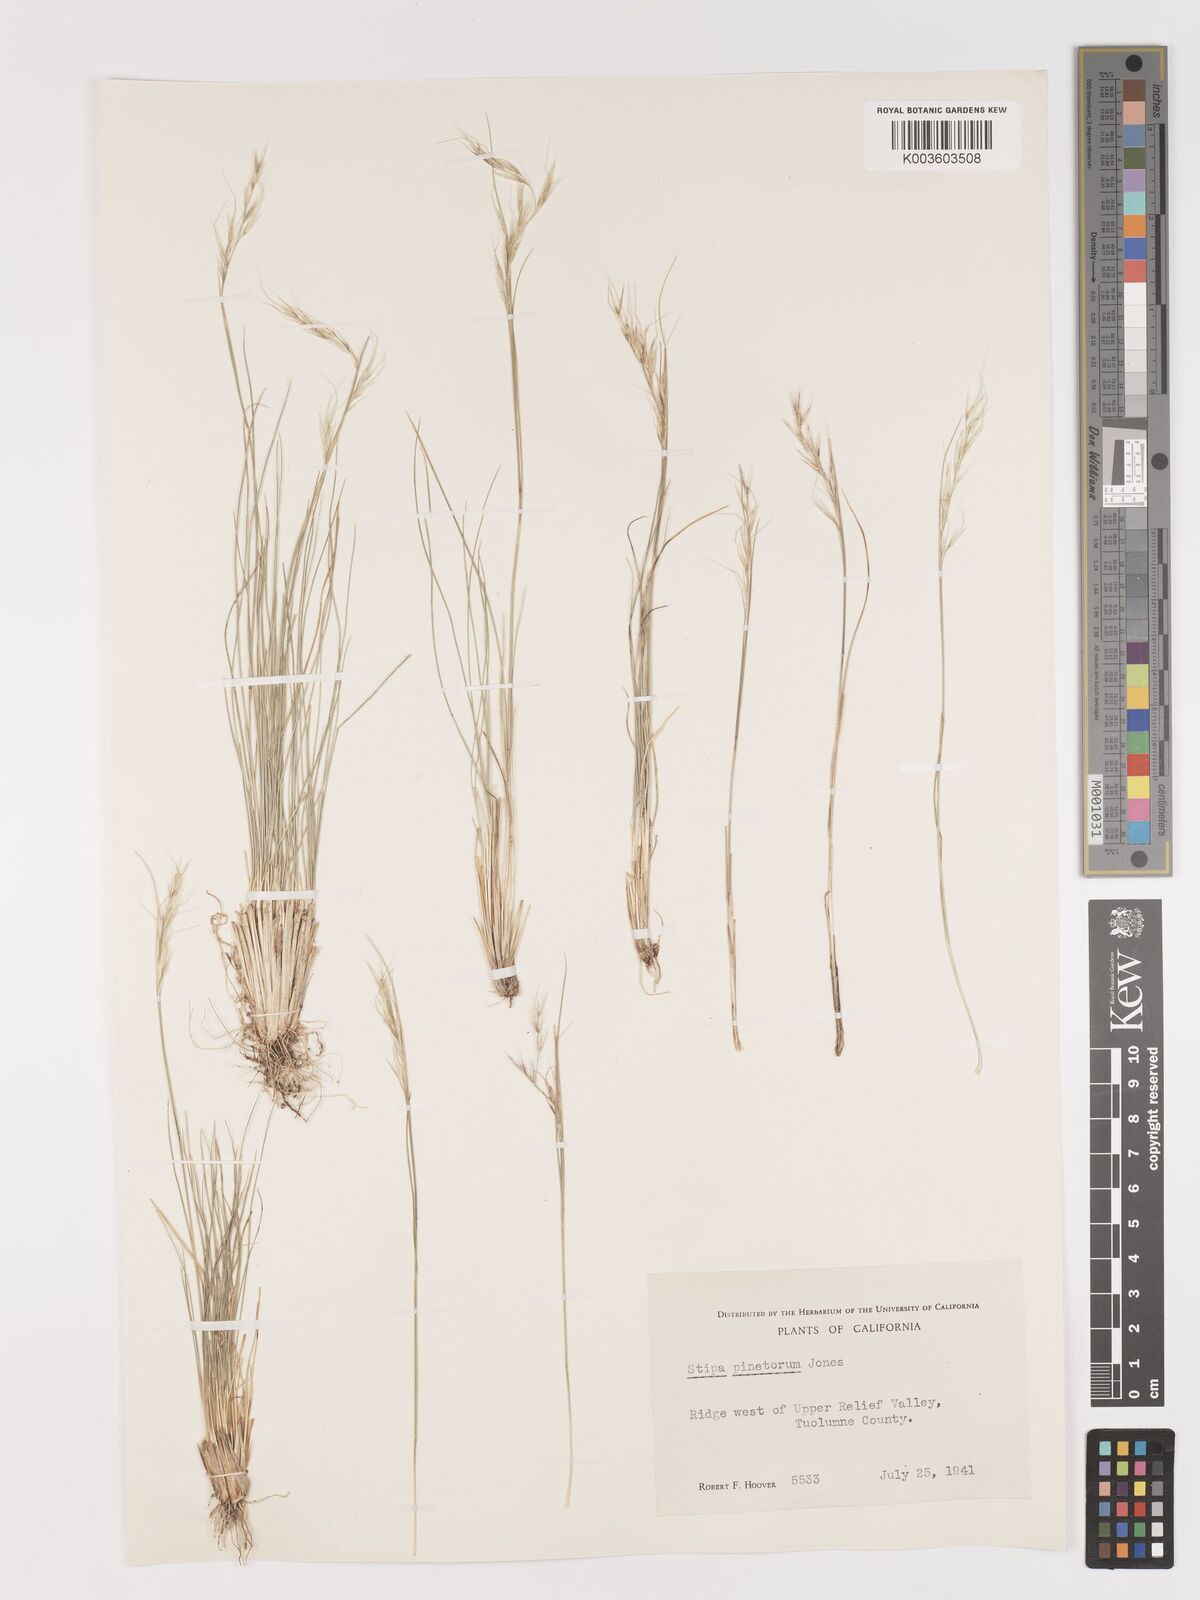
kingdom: Plantae
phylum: Tracheophyta
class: Liliopsida
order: Poales
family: Poaceae
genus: Eriocoma
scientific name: Eriocoma pinetorum
